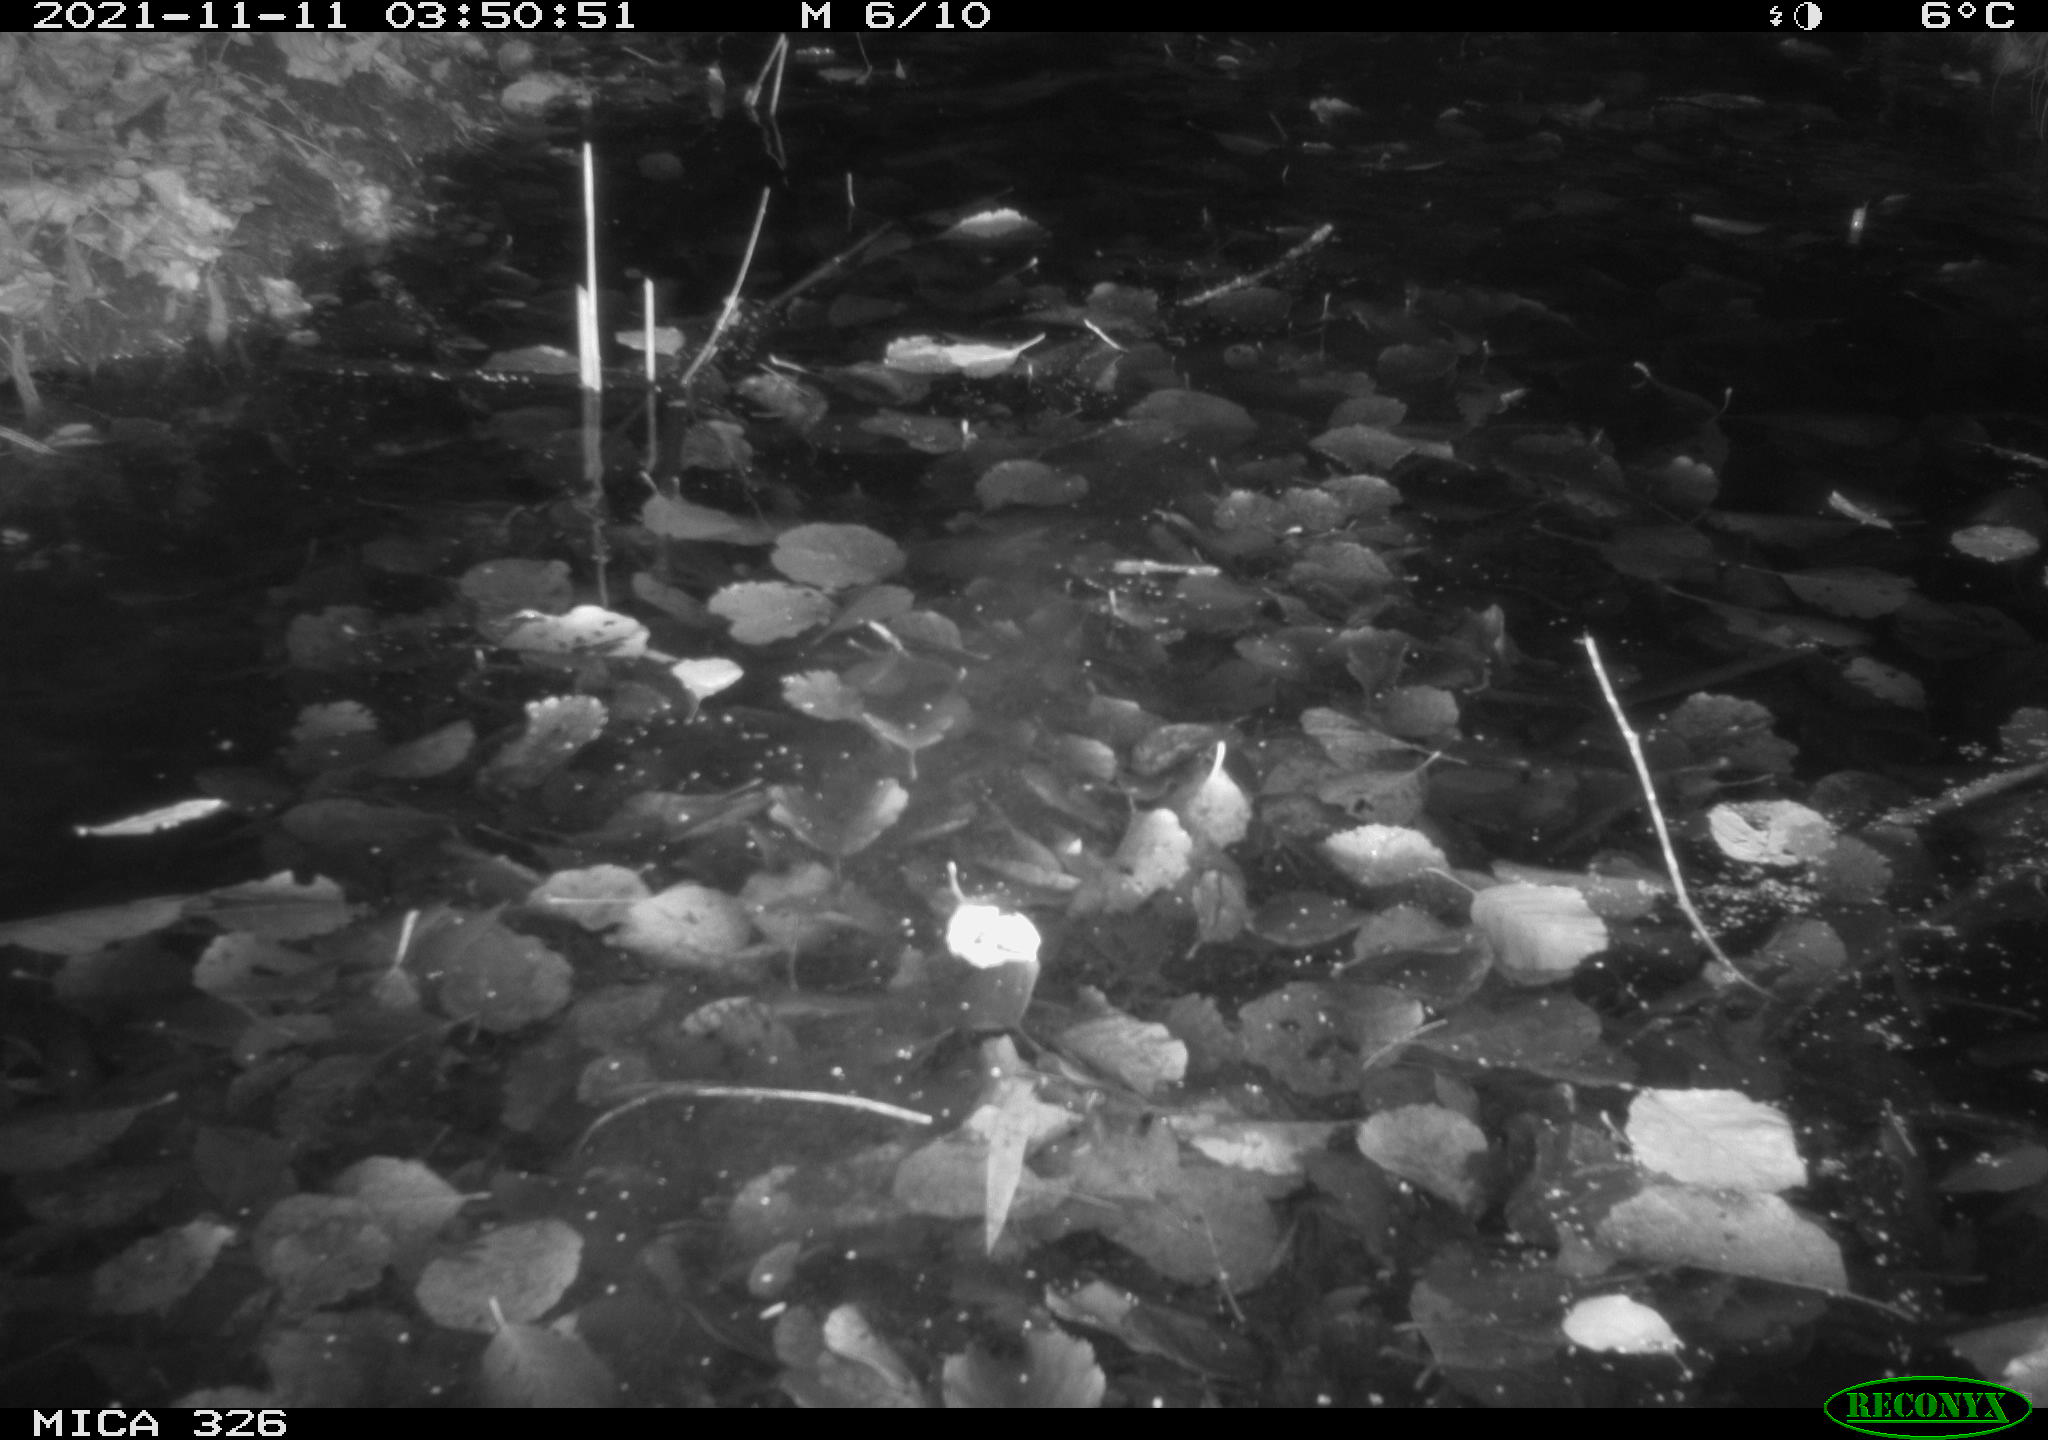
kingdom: Animalia
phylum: Chordata
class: Mammalia
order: Rodentia
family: Myocastoridae
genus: Myocastor
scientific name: Myocastor coypus
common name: Coypu
